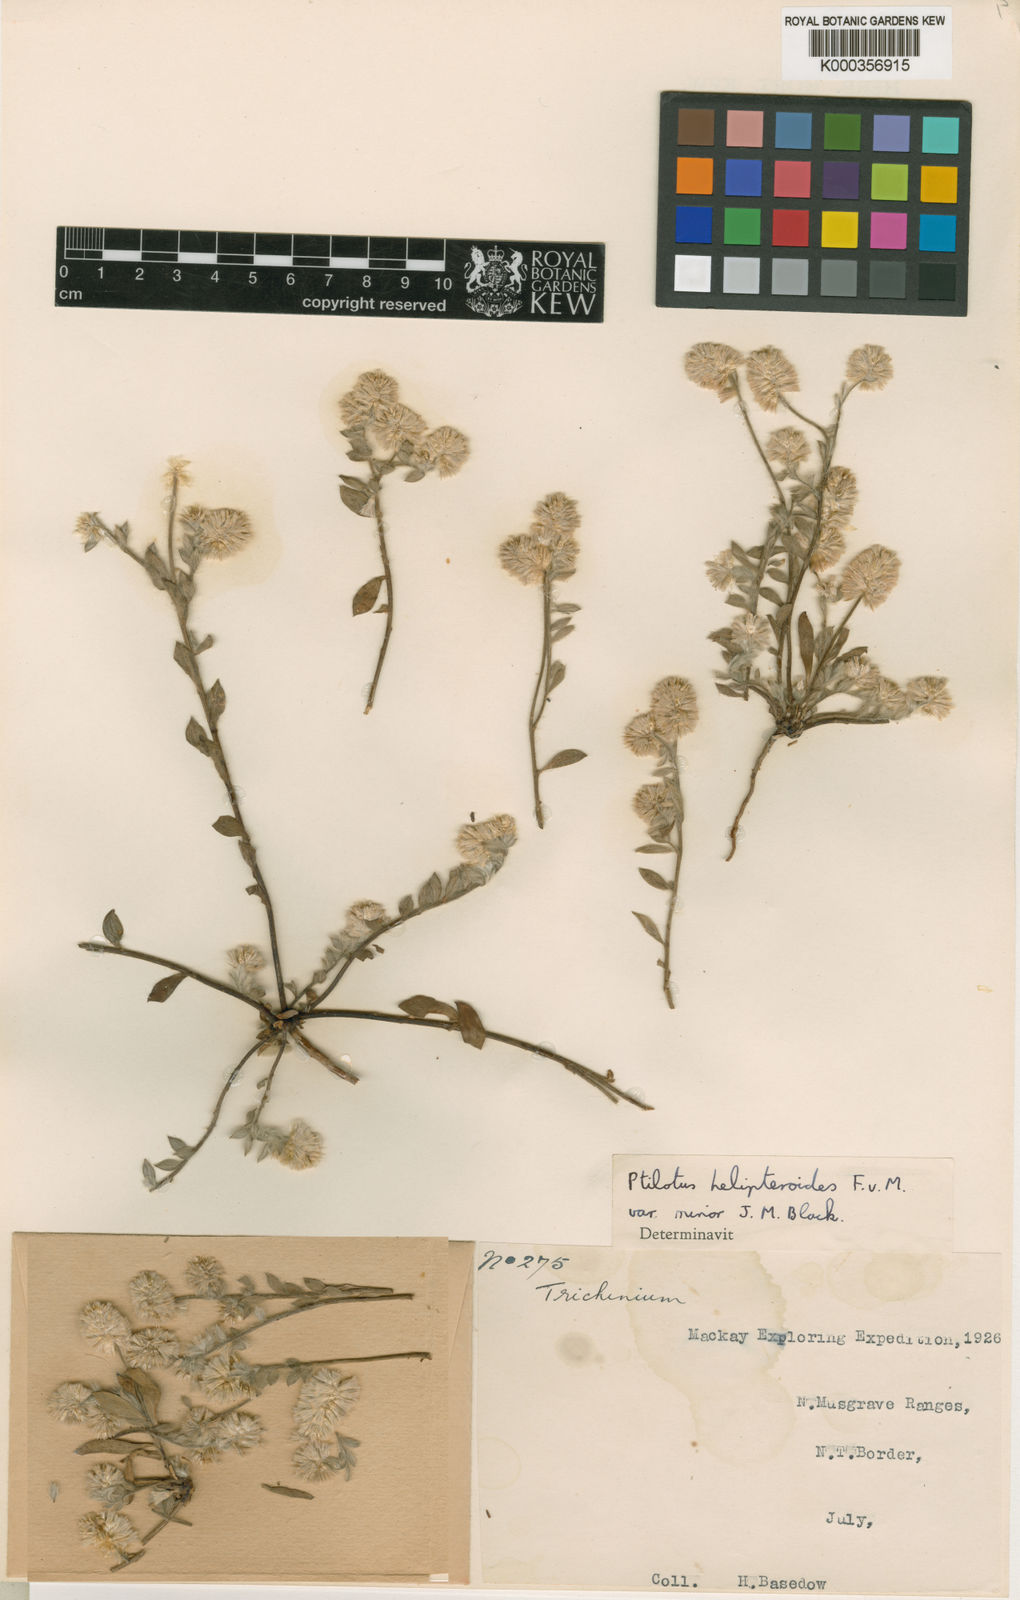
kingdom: Plantae
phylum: Tracheophyta
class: Magnoliopsida
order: Caryophyllales
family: Amaranthaceae
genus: Ptilotus
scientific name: Ptilotus
